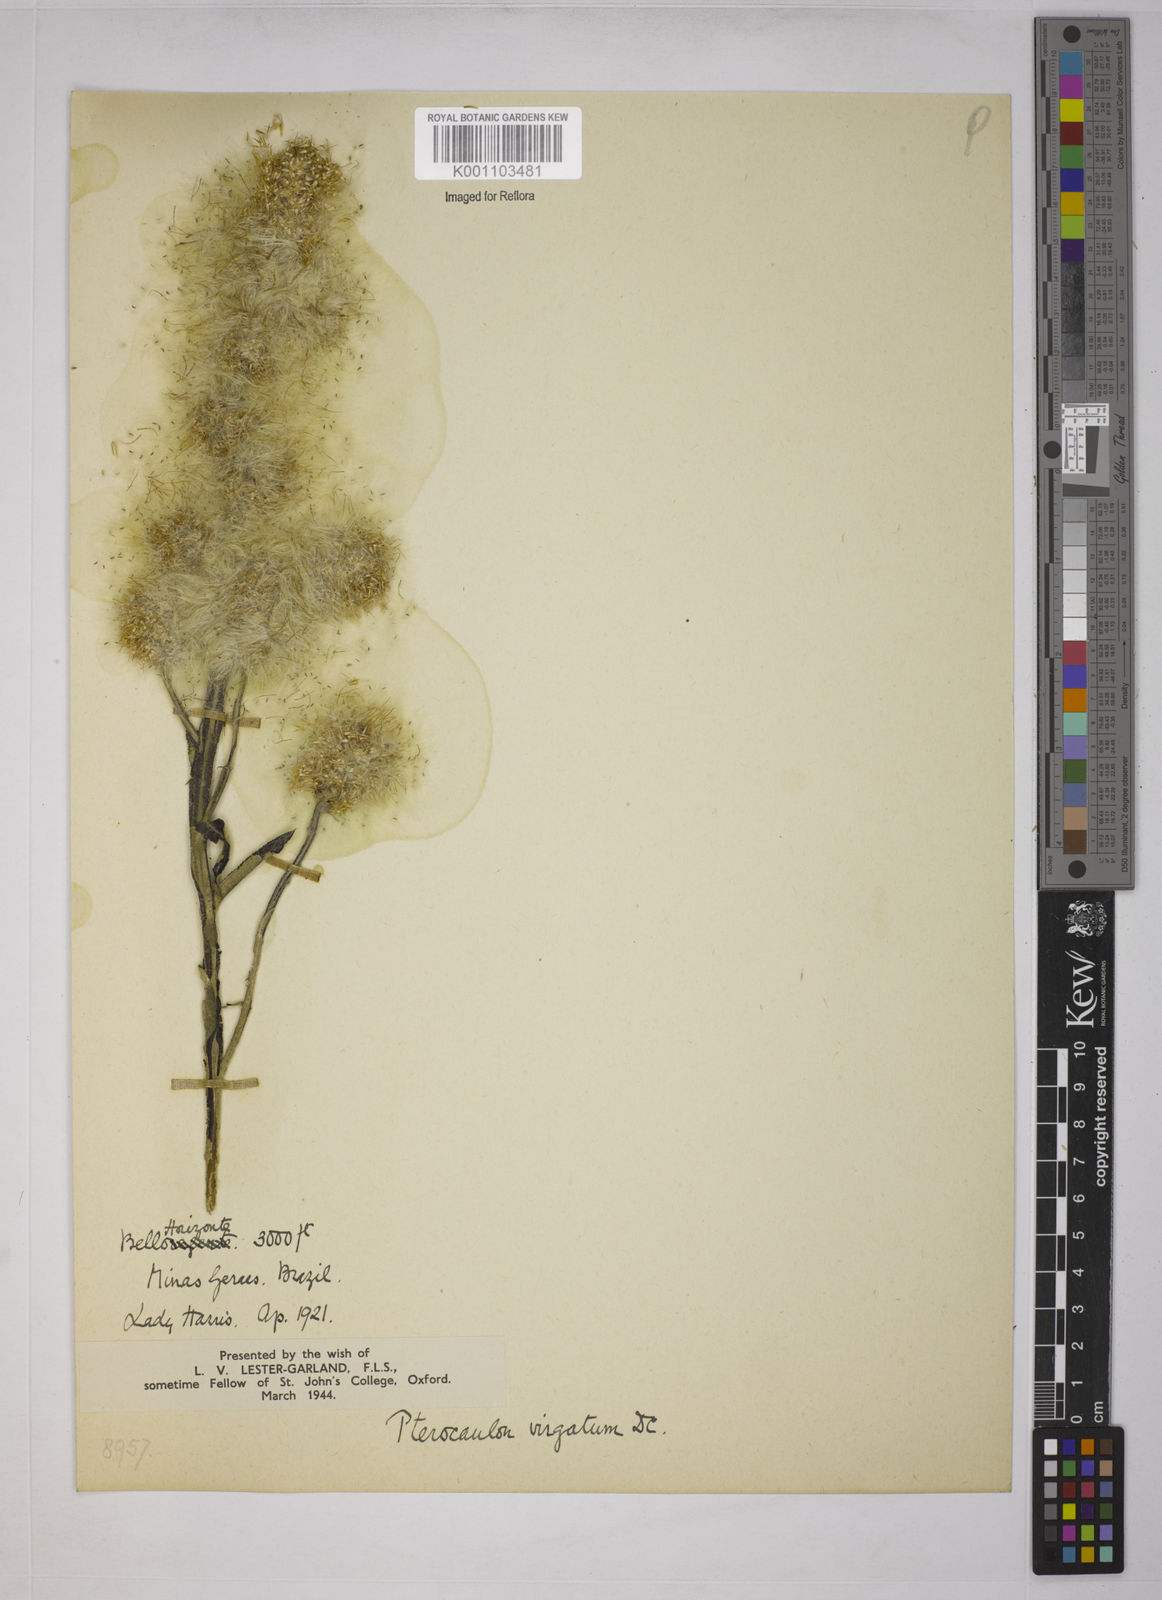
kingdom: Plantae
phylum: Tracheophyta
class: Magnoliopsida
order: Asterales
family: Asteraceae
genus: Pterocaulon
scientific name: Pterocaulon virgatum
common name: Wand blackroot
